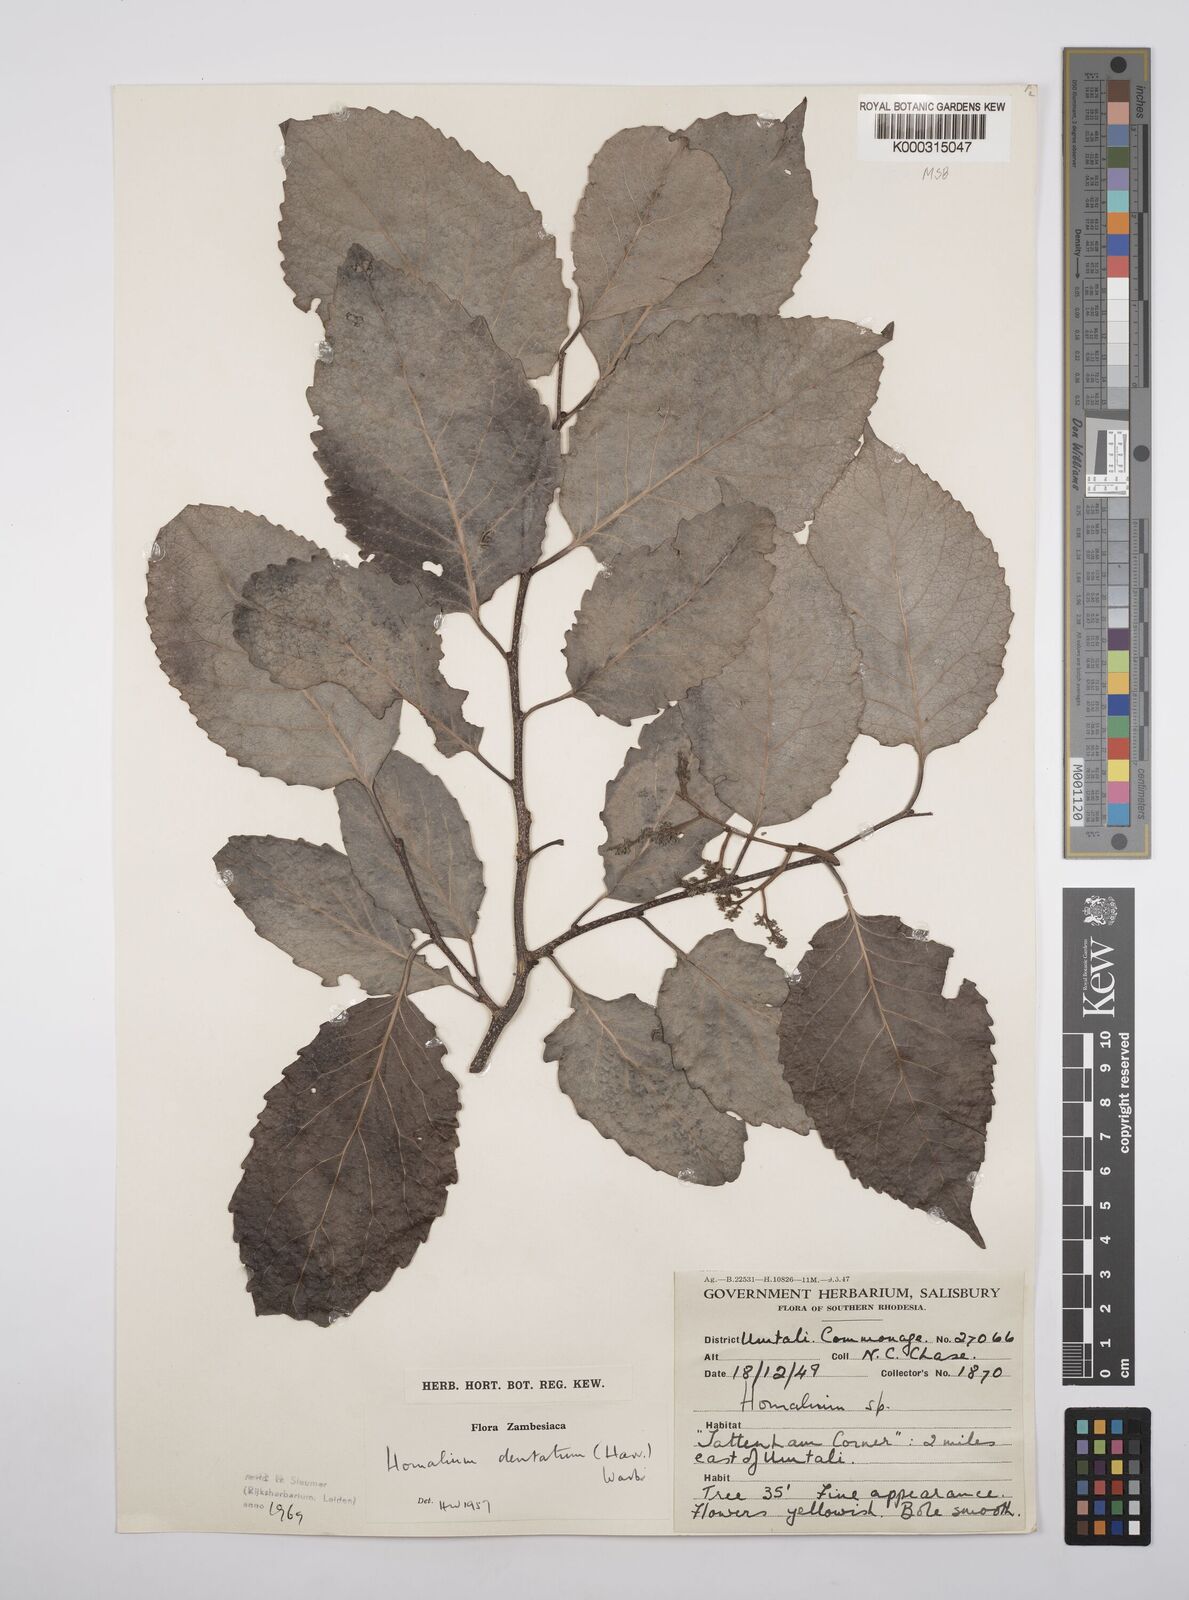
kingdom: Plantae
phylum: Tracheophyta
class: Magnoliopsida
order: Malpighiales
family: Salicaceae
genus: Homalium
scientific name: Homalium dentatum
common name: Brown ironwood
